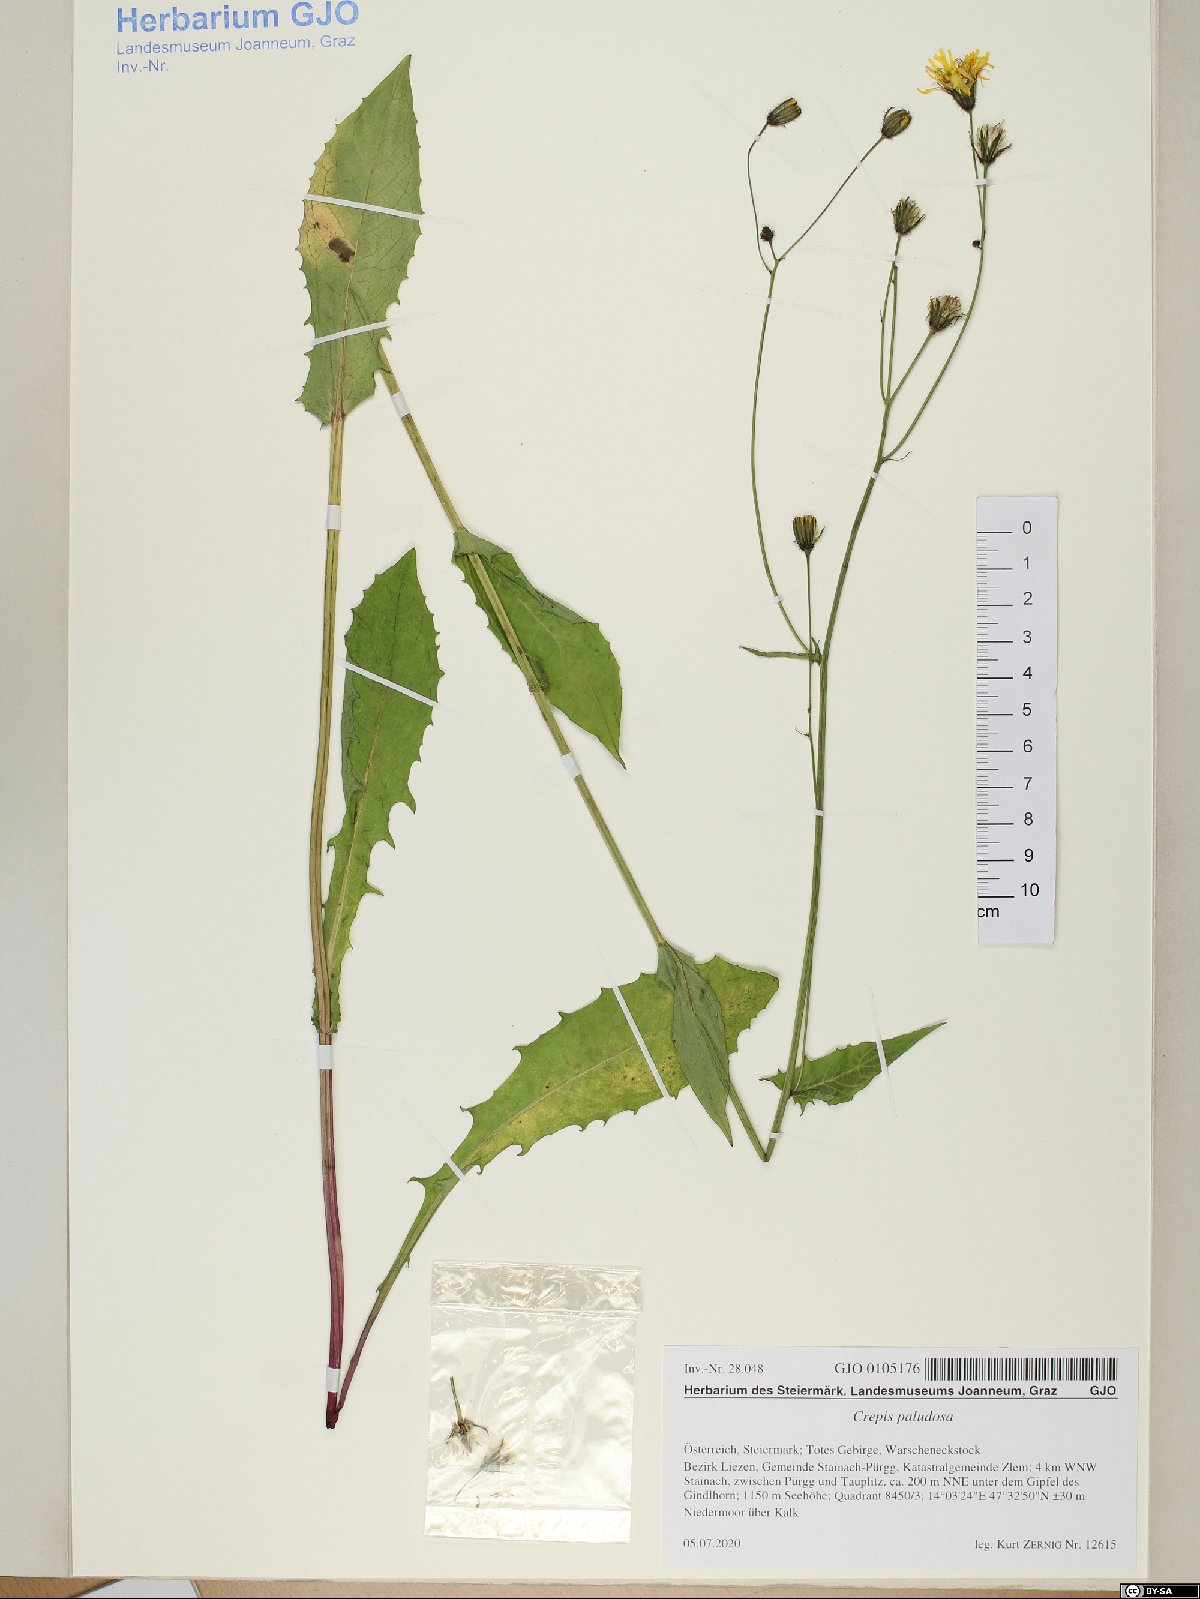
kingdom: Plantae
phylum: Tracheophyta
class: Magnoliopsida
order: Asterales
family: Asteraceae
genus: Crepis
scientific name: Crepis paludosa
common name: Marsh hawk's-beard
